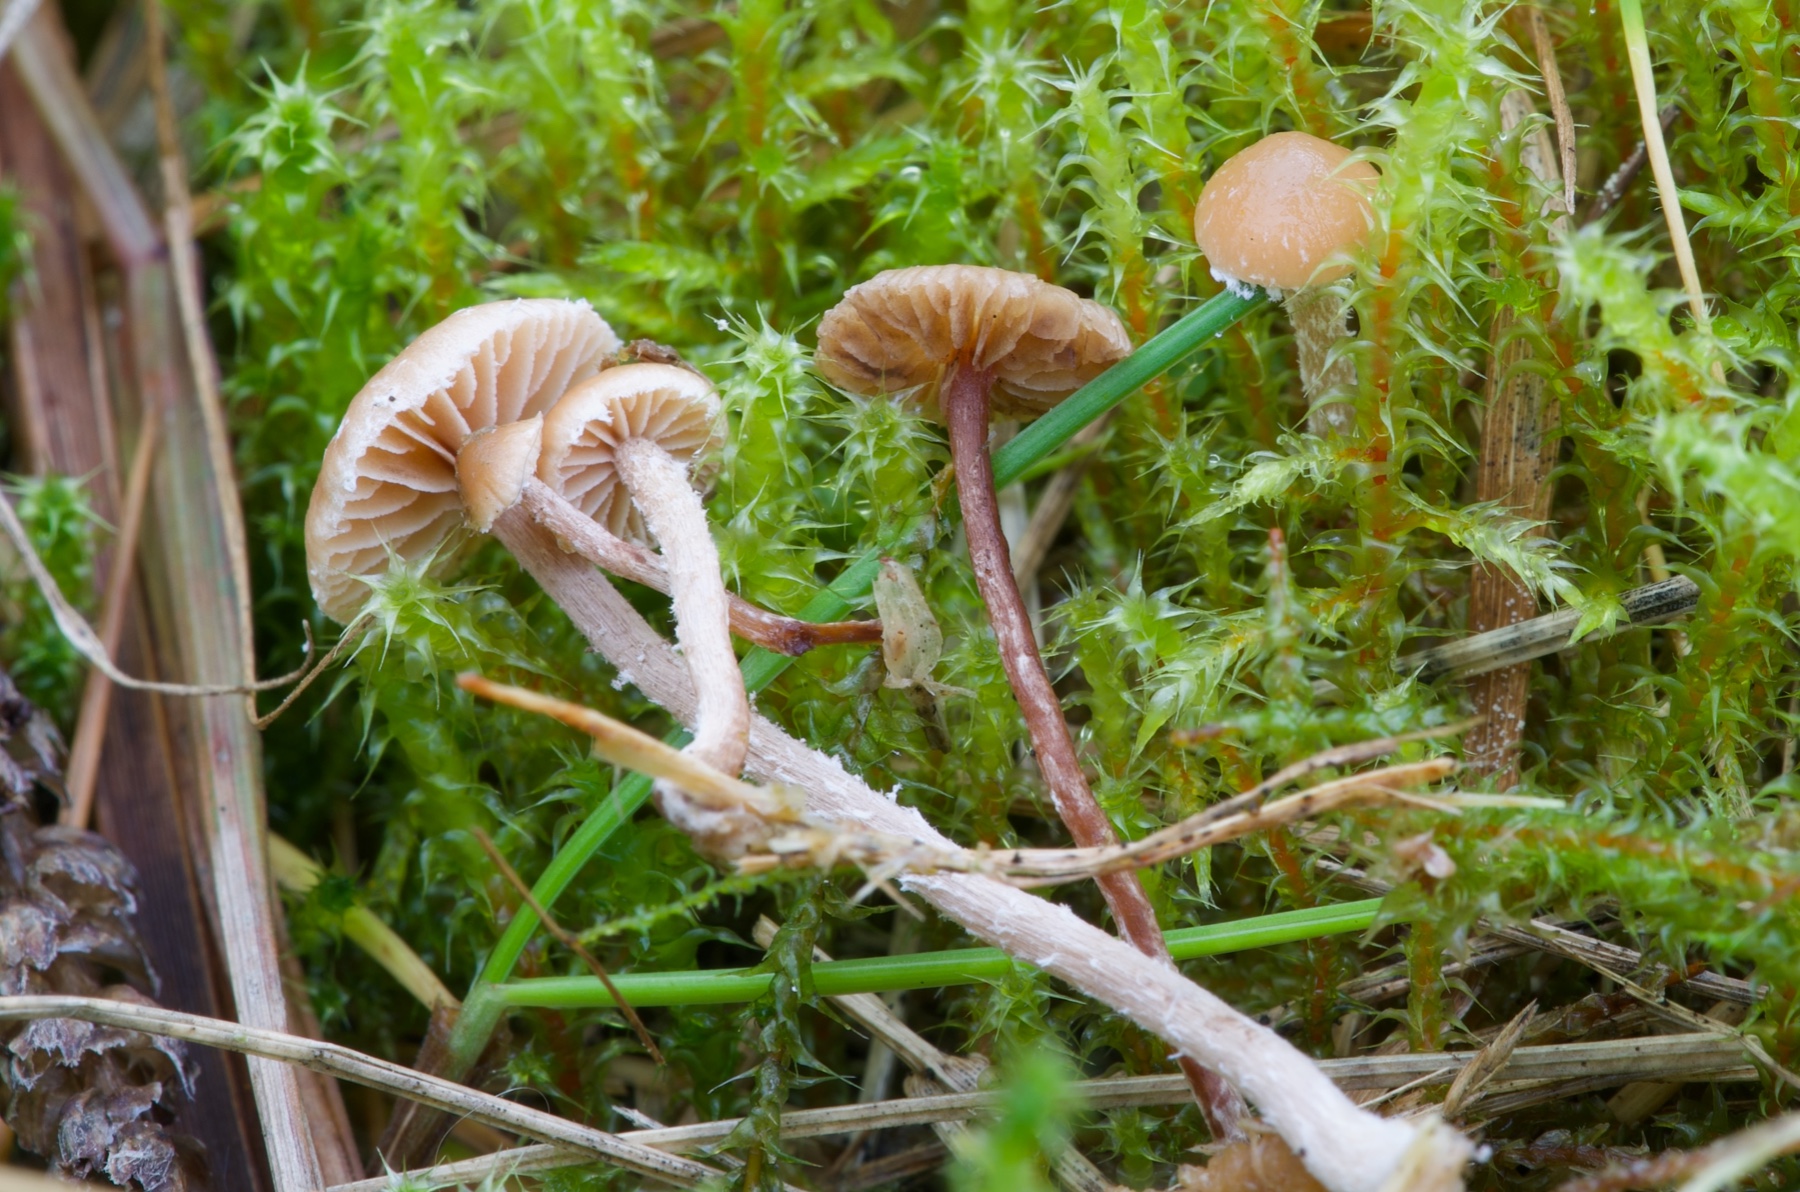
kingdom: Fungi
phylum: Basidiomycota
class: Agaricomycetes
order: Agaricales
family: Strophariaceae
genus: Deconica
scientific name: Deconica inquilina
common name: græs-stråhat
